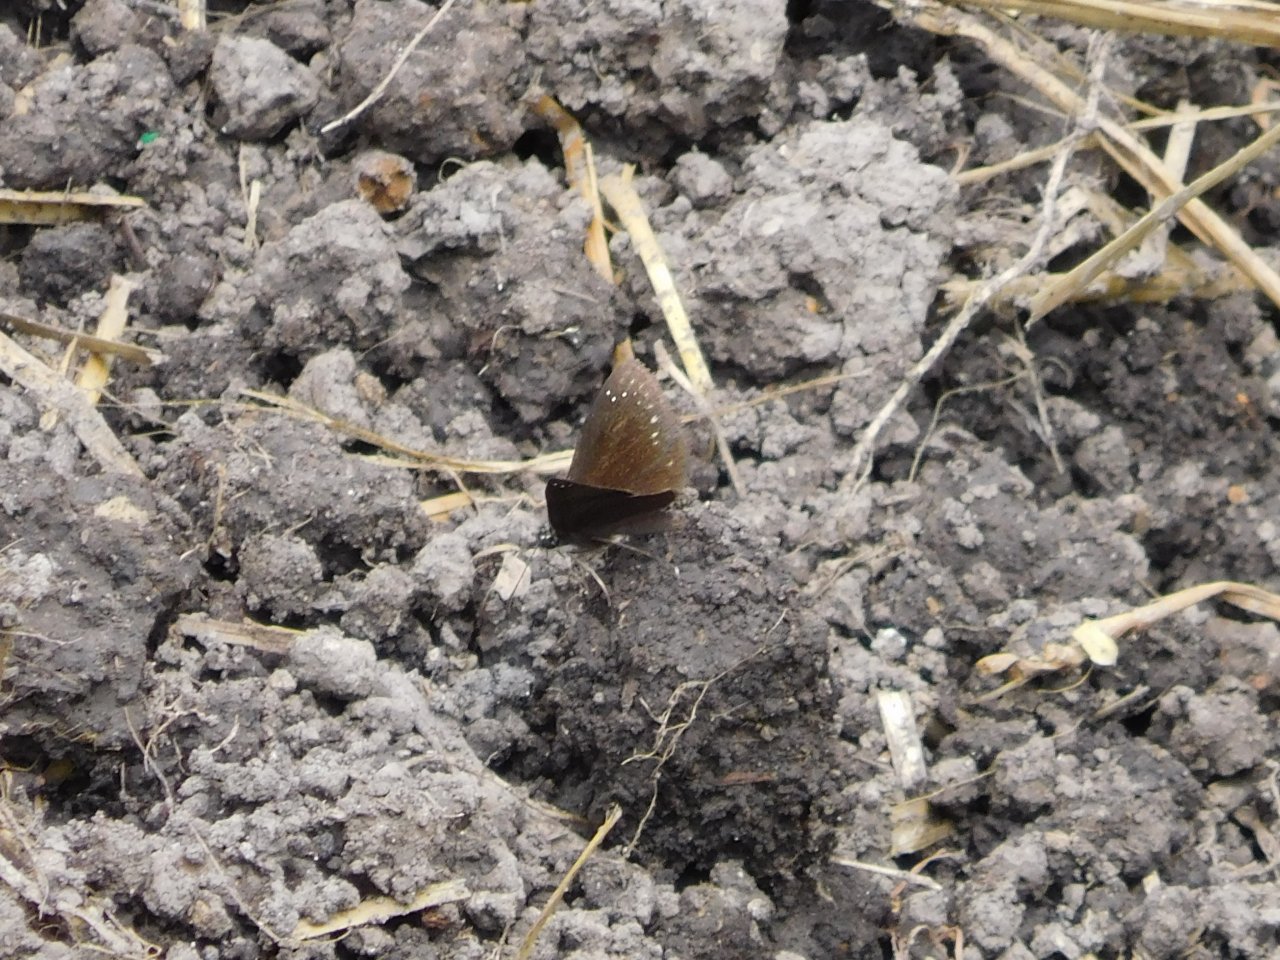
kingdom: Animalia
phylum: Arthropoda
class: Insecta
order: Lepidoptera
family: Hesperiidae
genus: Pholisora
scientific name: Pholisora catullus
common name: Common Sootywing
